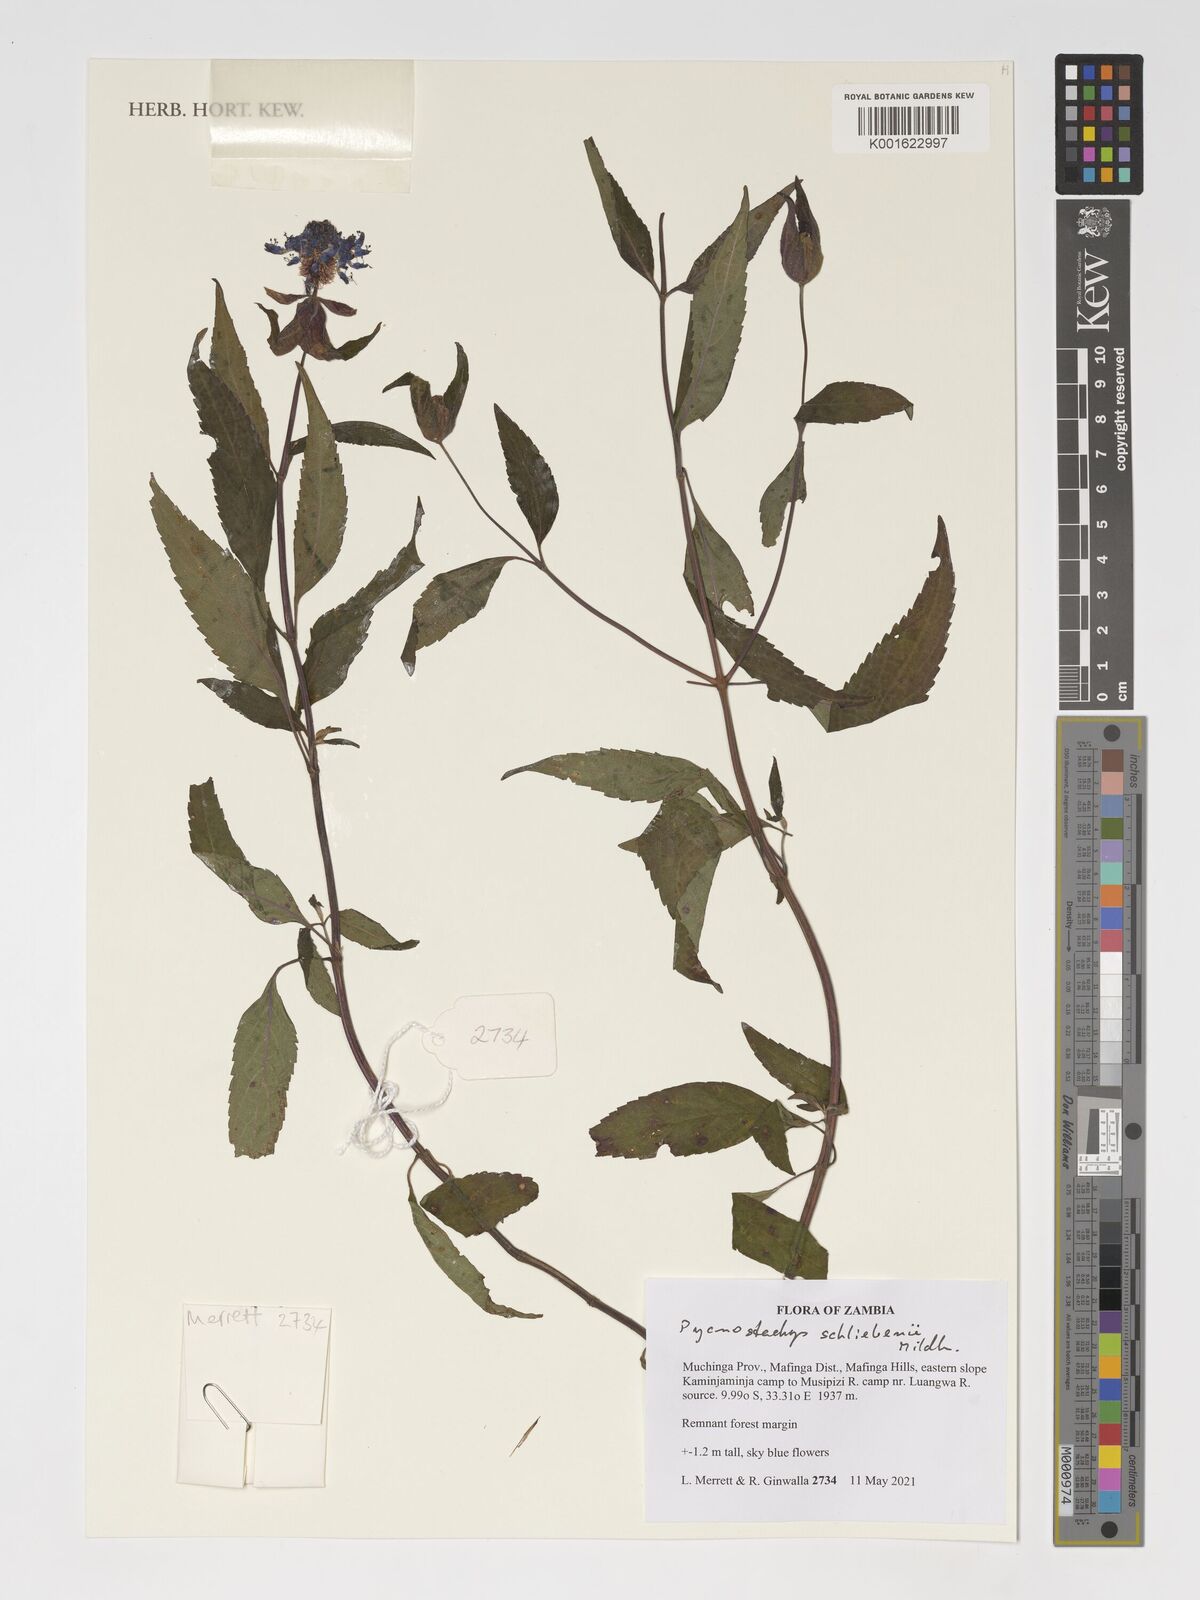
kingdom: Plantae
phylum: Tracheophyta
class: Magnoliopsida
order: Lamiales
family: Lamiaceae
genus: Coleus
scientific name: Coleus schliebenii
